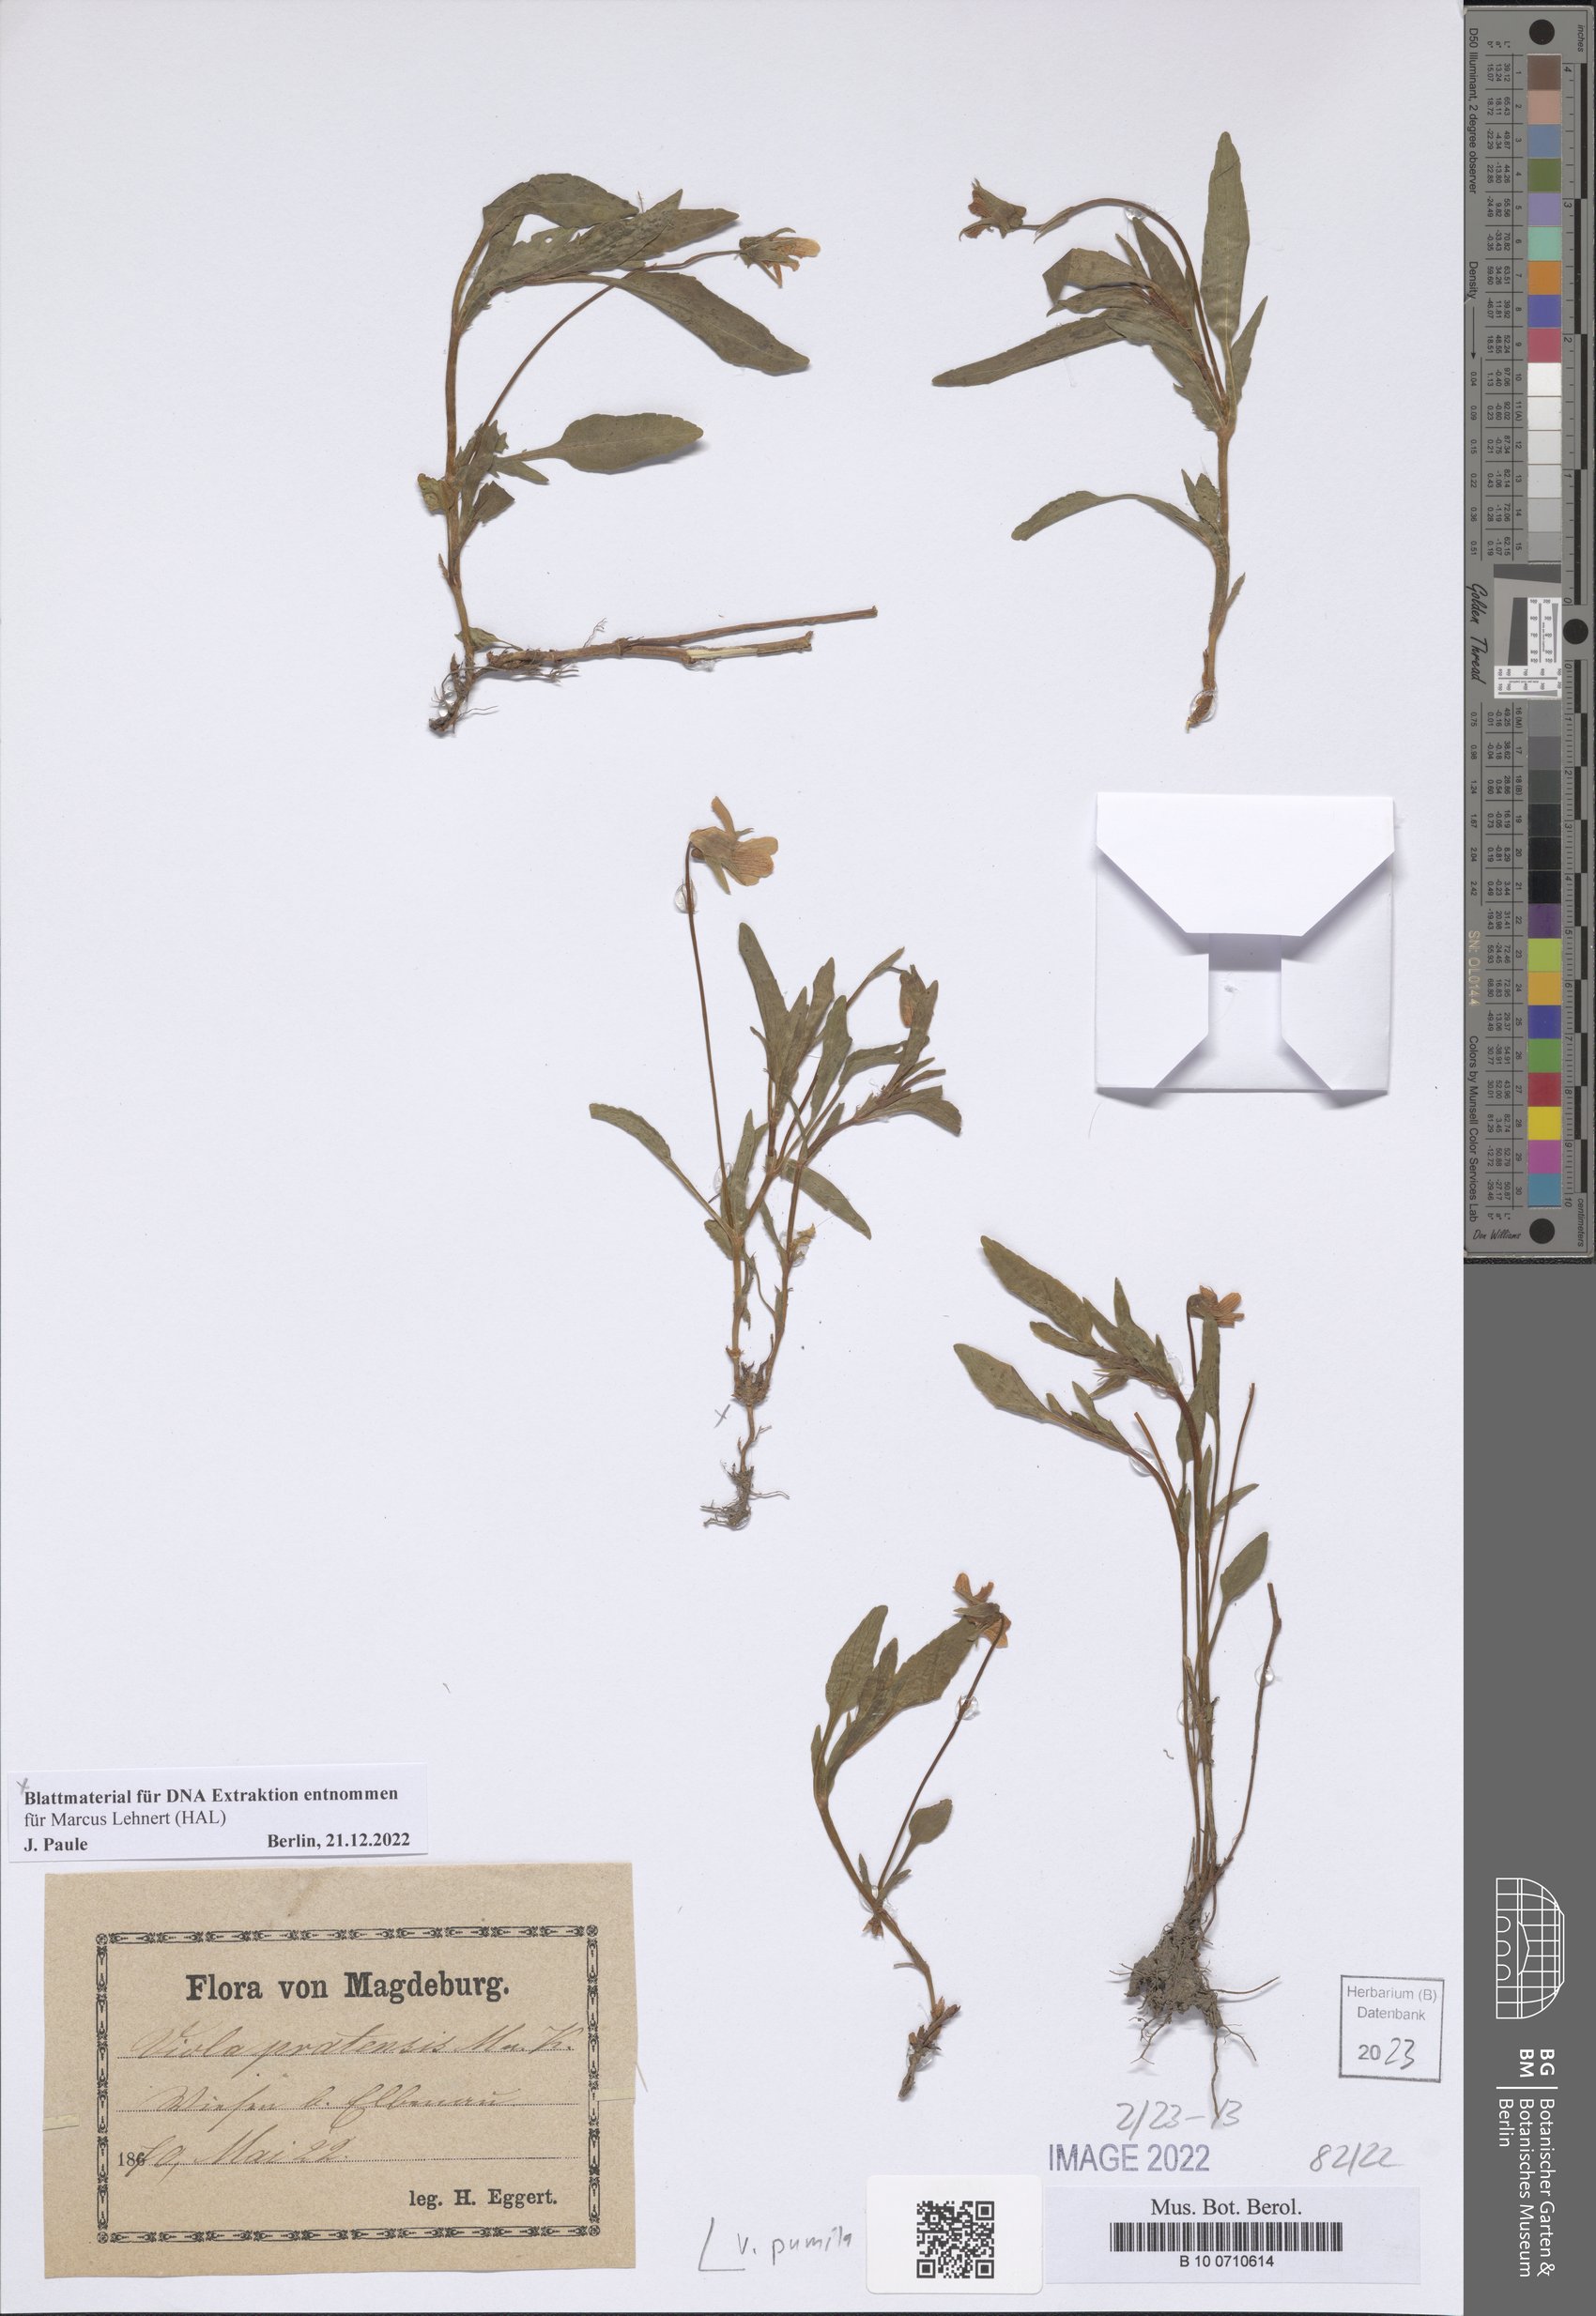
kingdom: Plantae
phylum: Tracheophyta
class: Magnoliopsida
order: Malpighiales
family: Violaceae
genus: Viola
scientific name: Viola pumila
